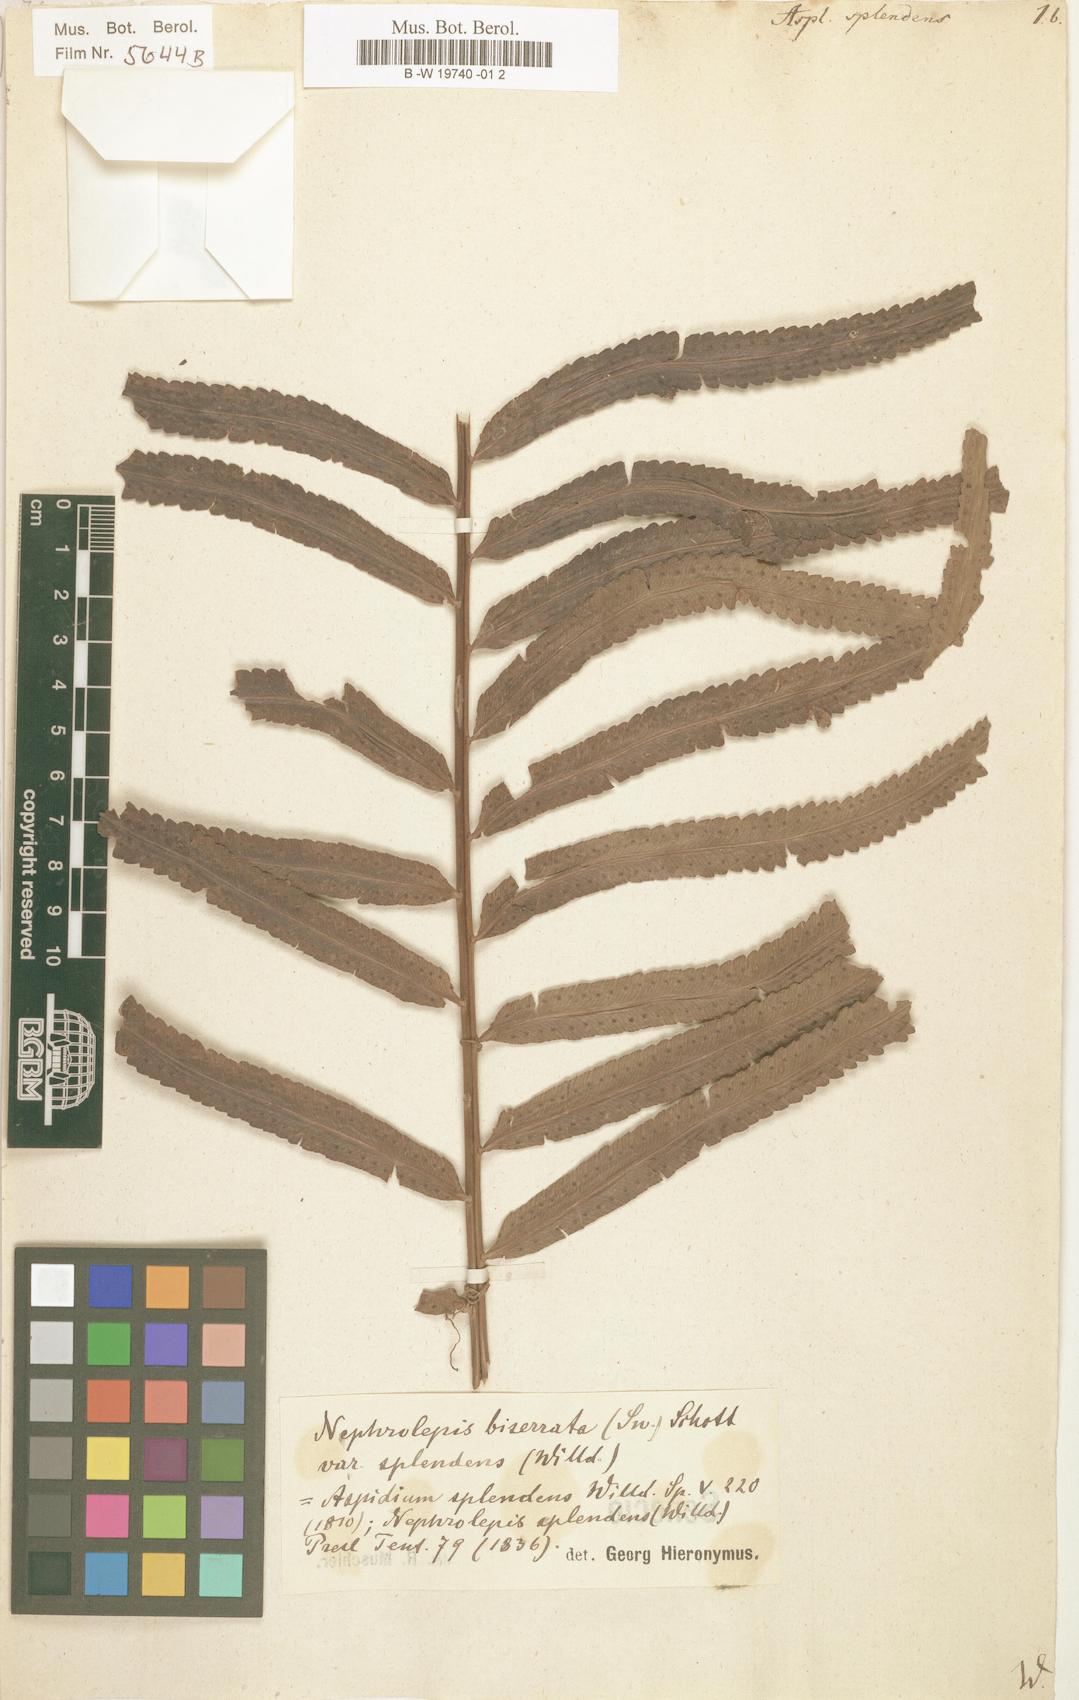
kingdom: Plantae
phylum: Tracheophyta
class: Polypodiopsida
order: Polypodiales
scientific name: Polypodiales
